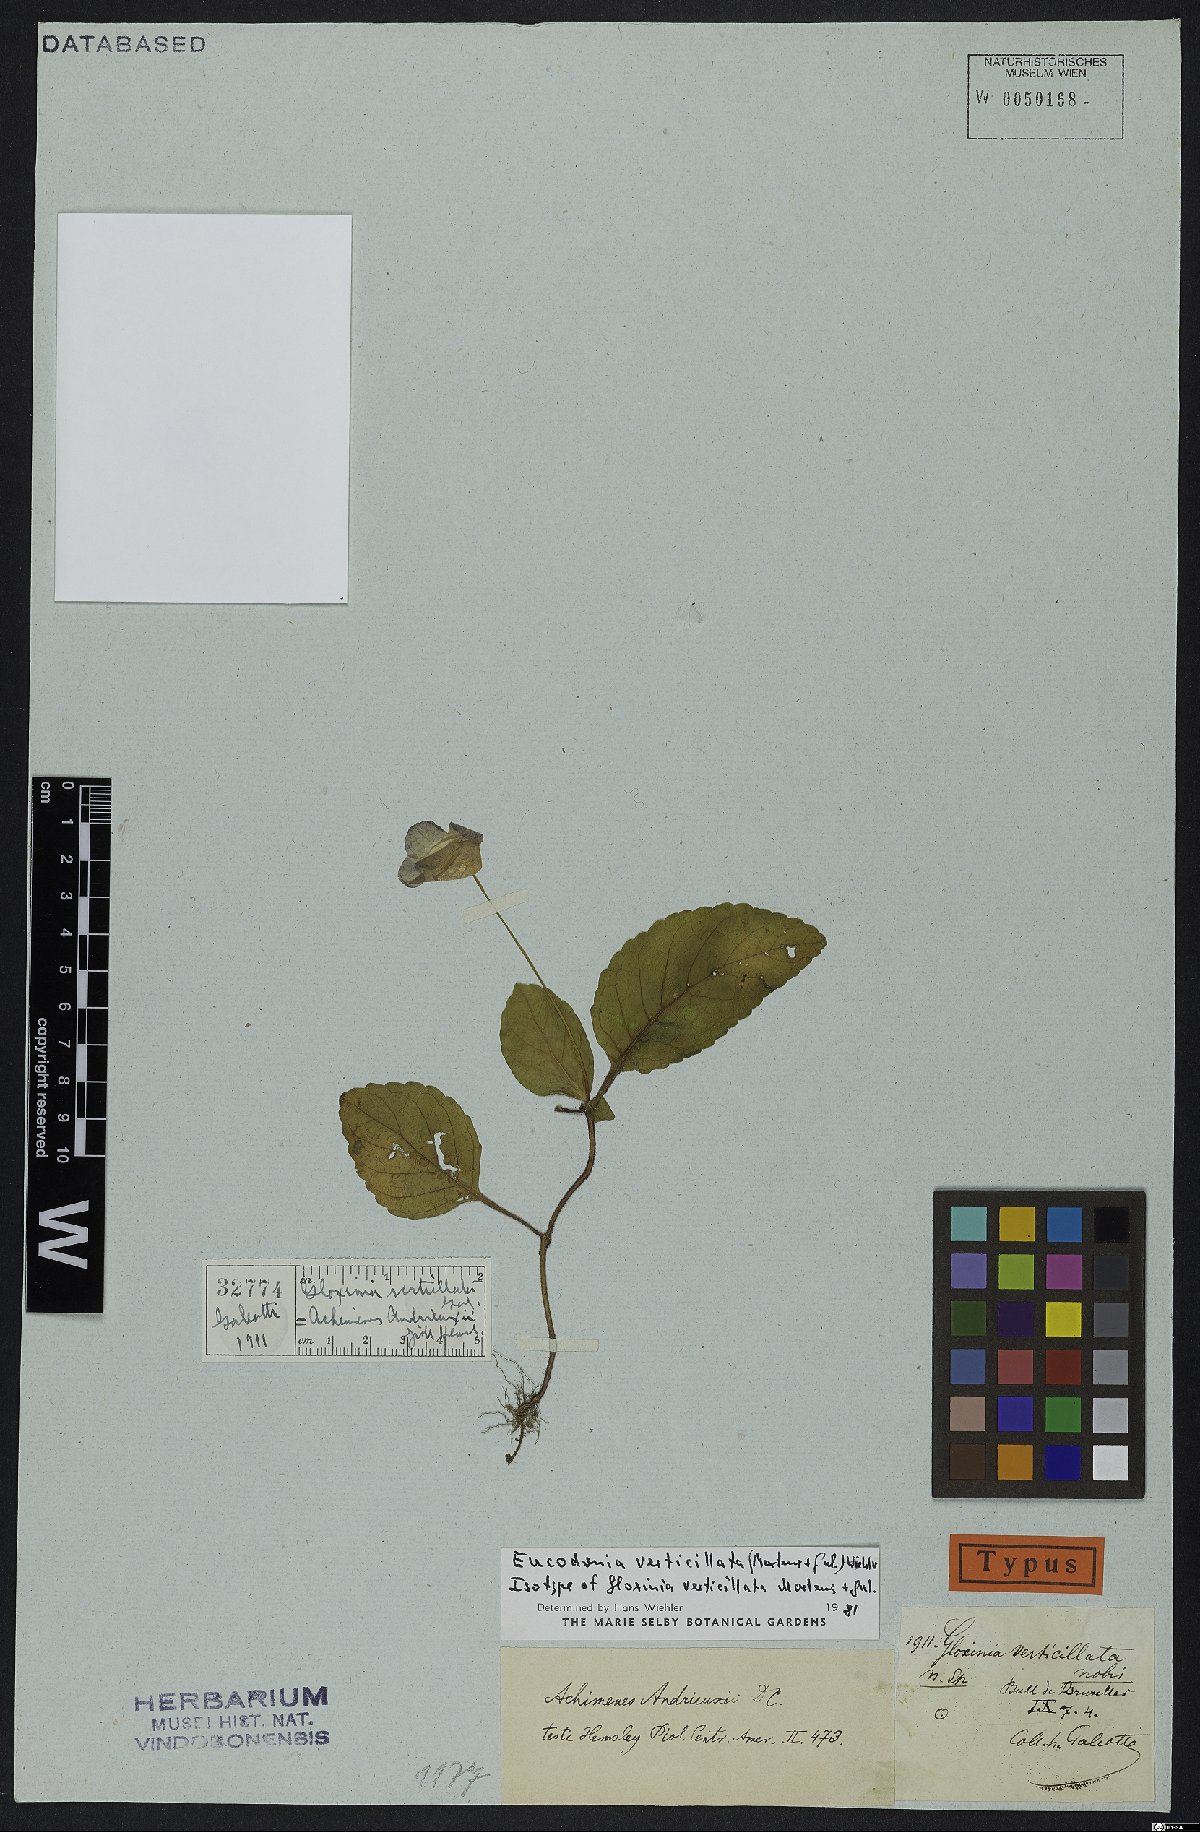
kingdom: Plantae
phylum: Tracheophyta
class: Magnoliopsida
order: Lamiales
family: Gesneriaceae
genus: Eucodonia
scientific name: Eucodonia verticillata
